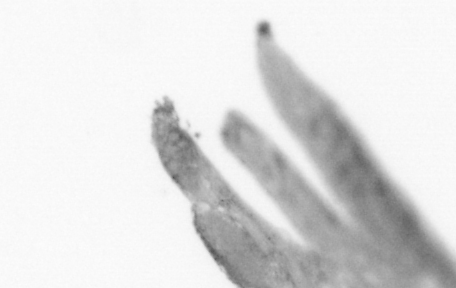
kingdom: Animalia
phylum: Chordata
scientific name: Chordata
